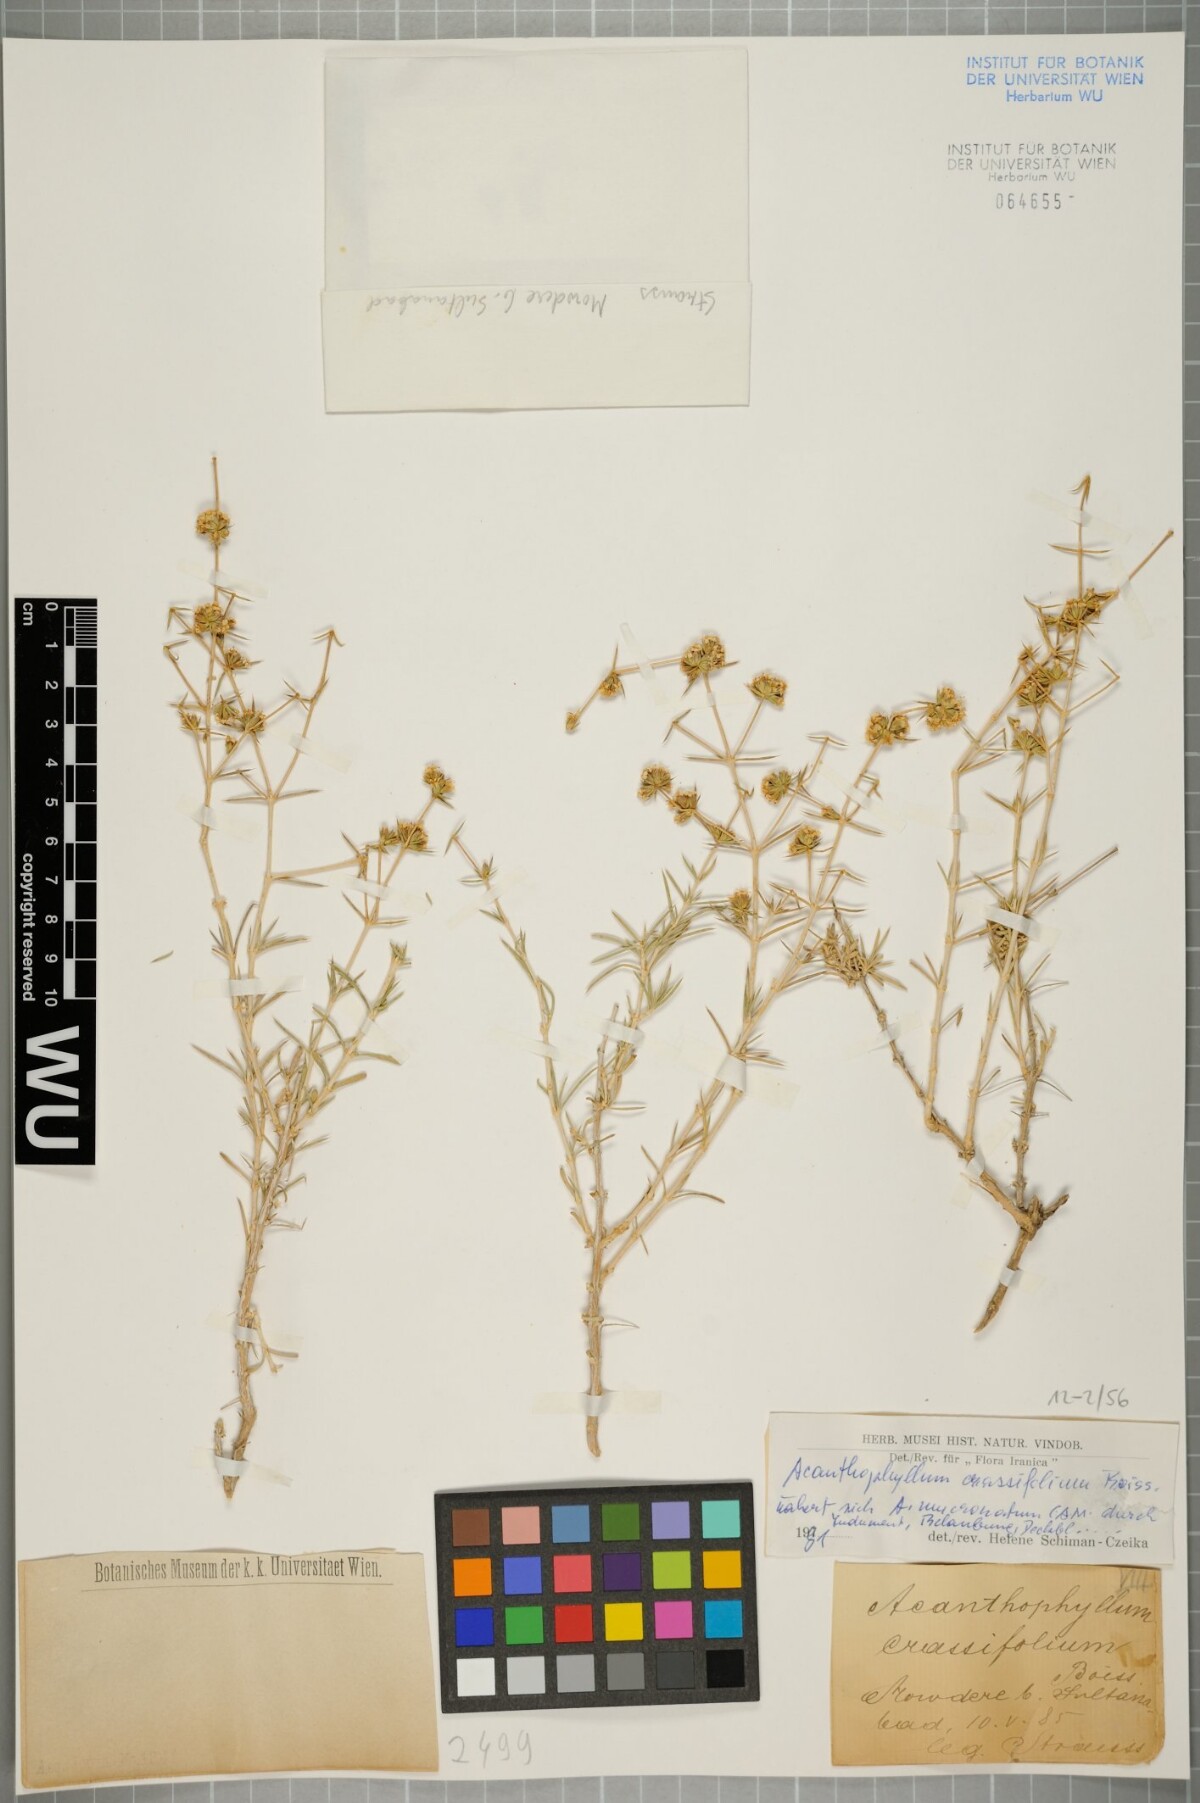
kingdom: Plantae
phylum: Tracheophyta
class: Magnoliopsida
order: Caryophyllales
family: Caryophyllaceae
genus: Acanthophyllum
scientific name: Acanthophyllum crassifolium
